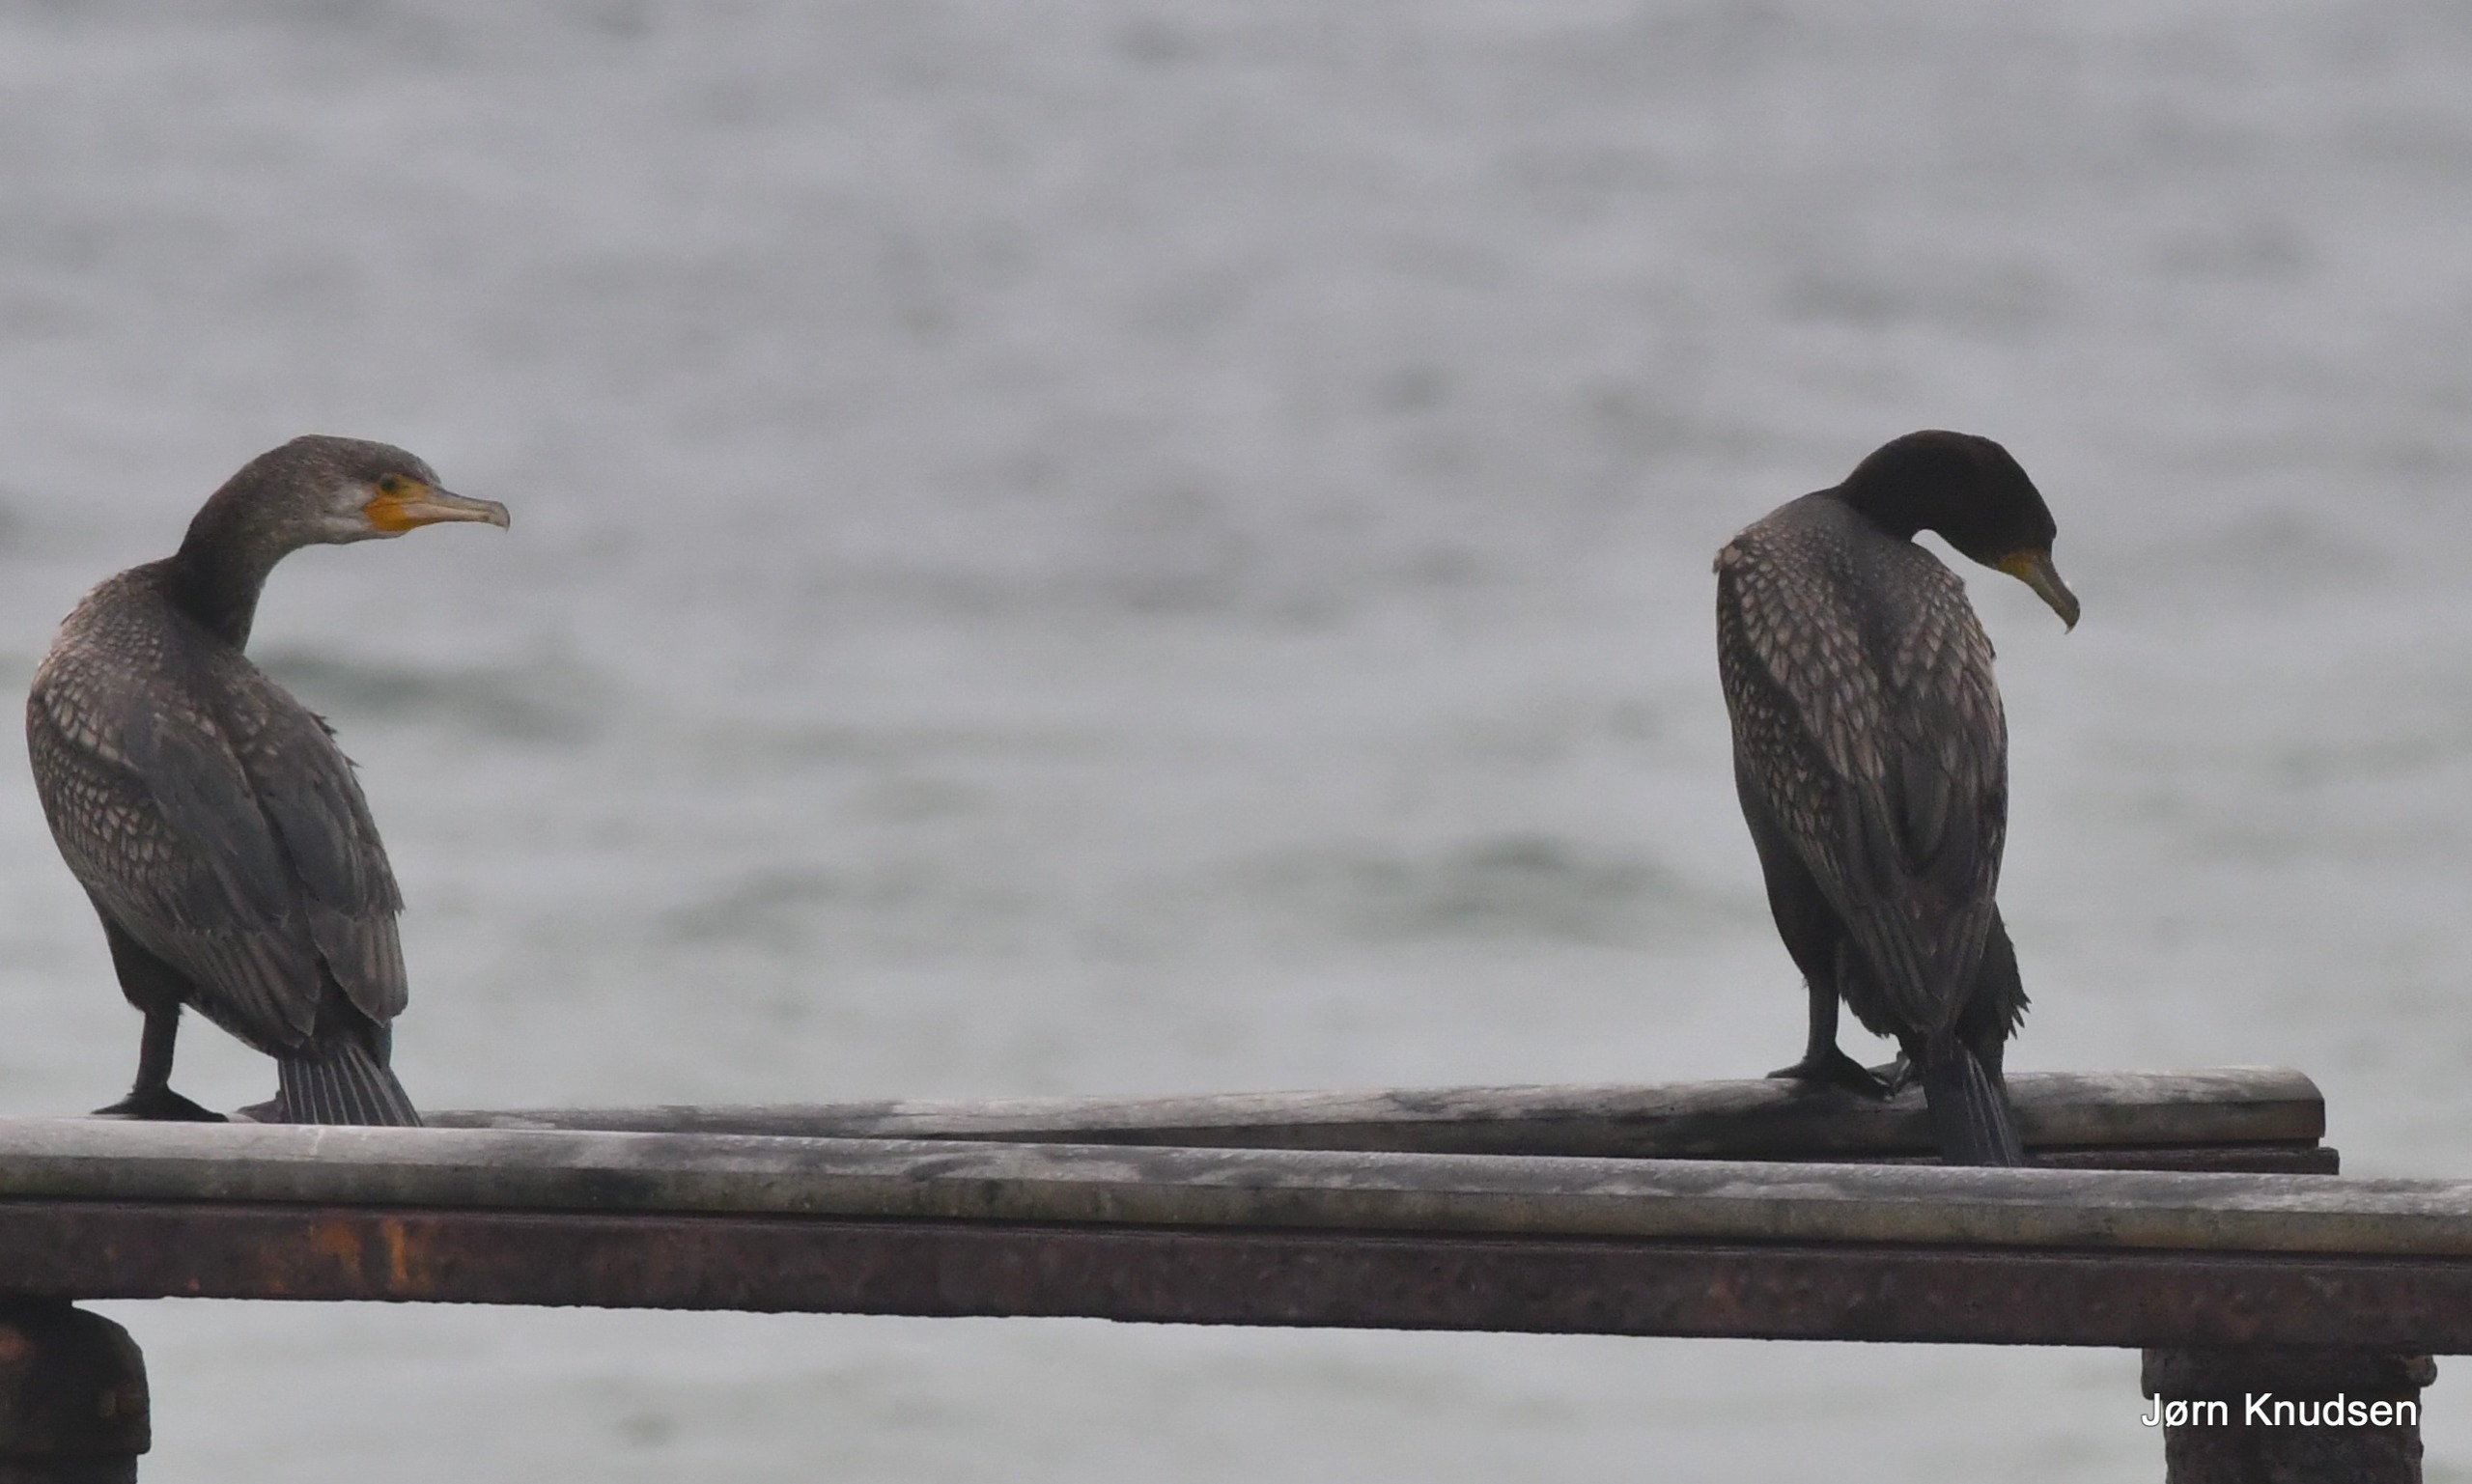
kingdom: Animalia
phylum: Chordata
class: Aves
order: Suliformes
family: Phalacrocoracidae
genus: Phalacrocorax
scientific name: Phalacrocorax carbo
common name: Skarv
